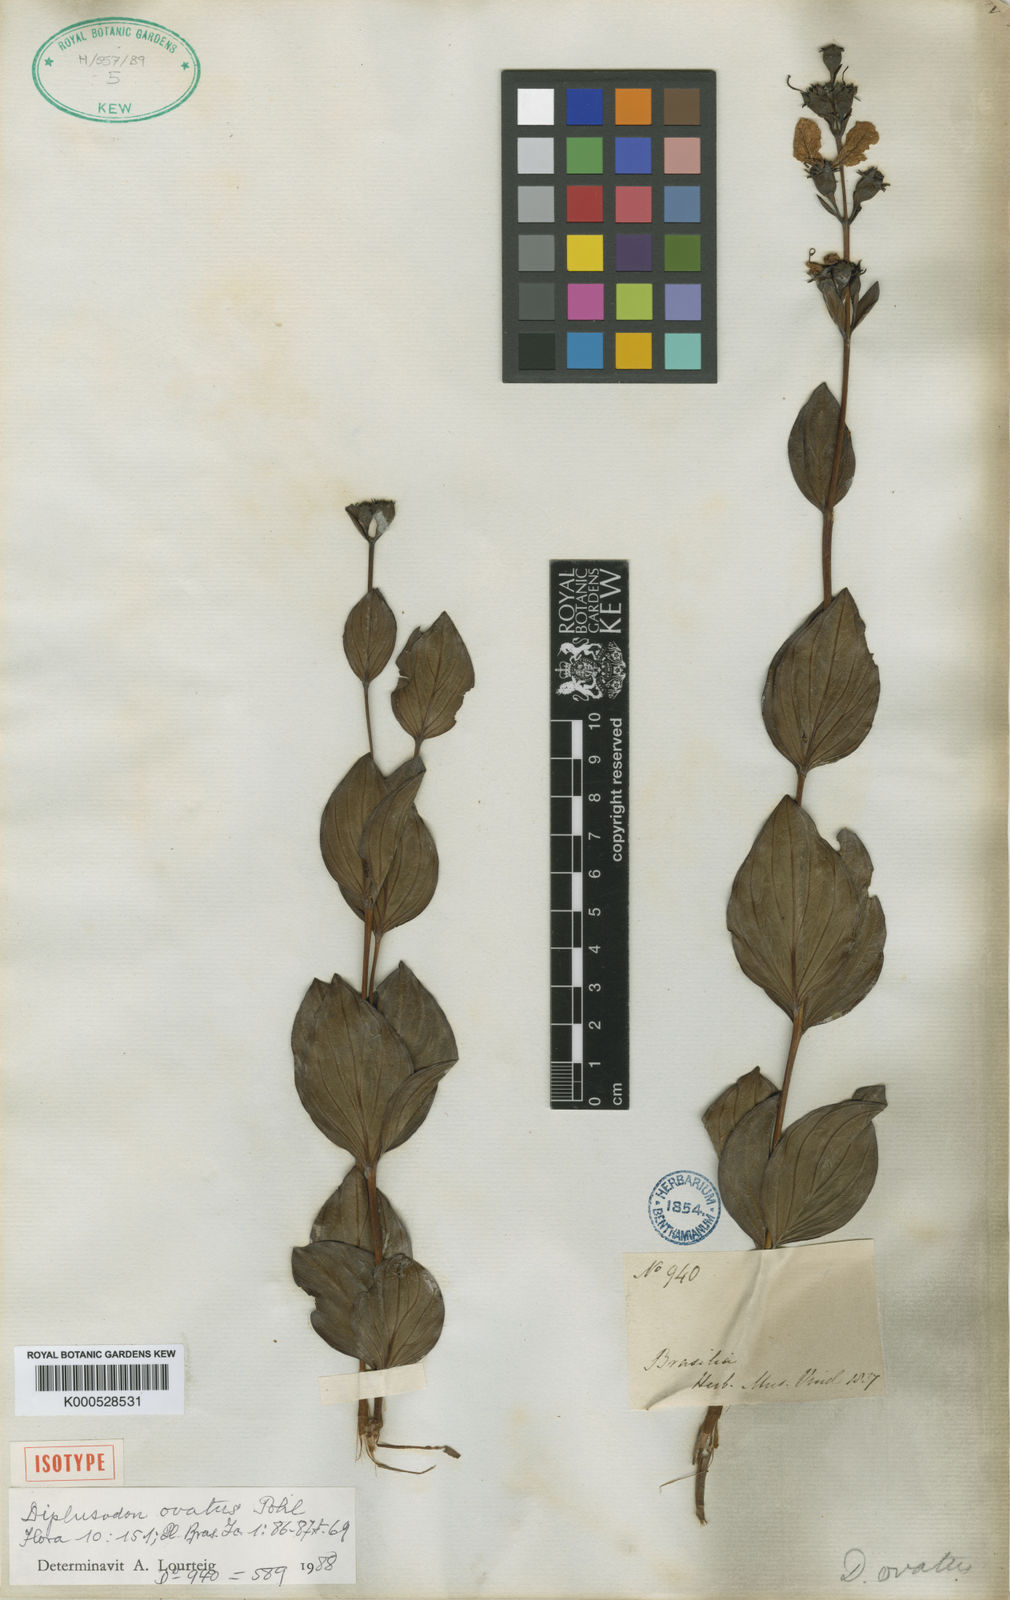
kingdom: Plantae
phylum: Tracheophyta
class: Magnoliopsida
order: Myrtales
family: Lythraceae
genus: Diplusodon
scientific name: Diplusodon ovatus
